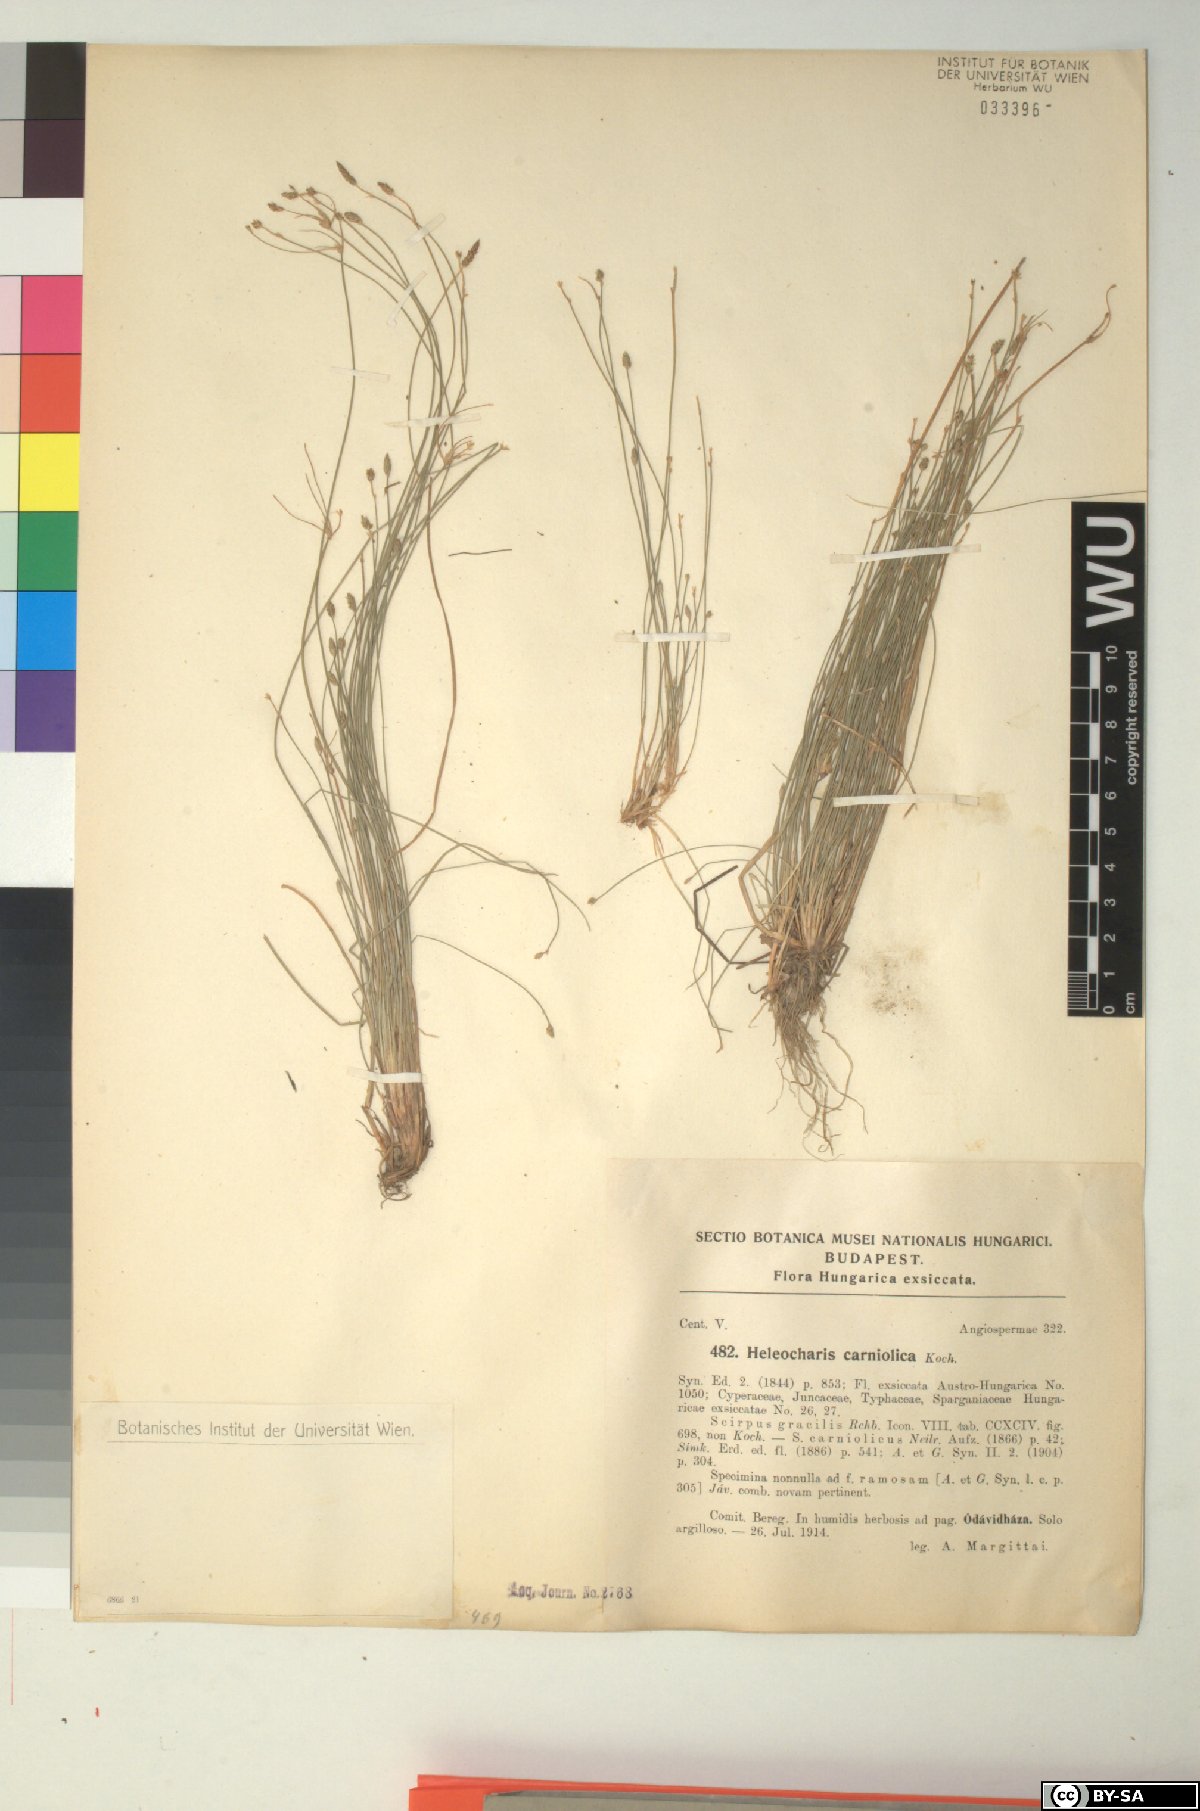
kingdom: Plantae
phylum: Tracheophyta
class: Liliopsida
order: Poales
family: Cyperaceae
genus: Eleocharis
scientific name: Eleocharis carniolica
